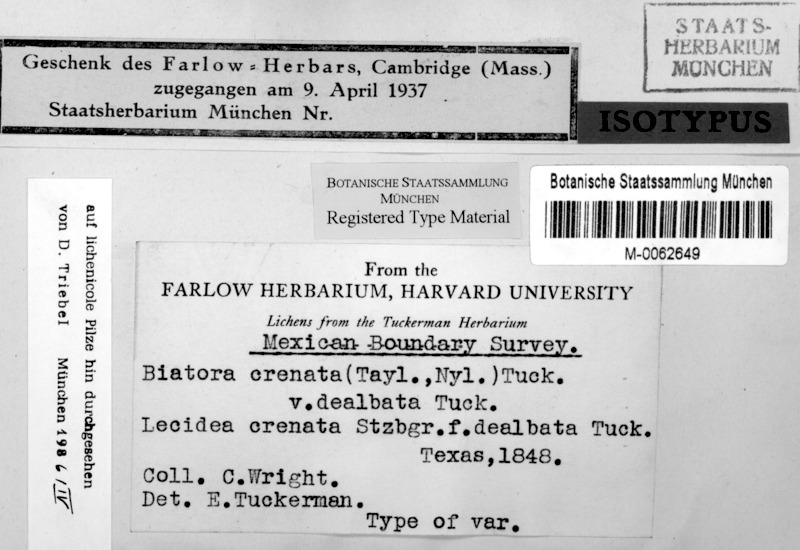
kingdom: Fungi
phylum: Ascomycota
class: Lecanoromycetes
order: Lecanorales
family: Psoraceae
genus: Psora
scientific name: Psora crenata
